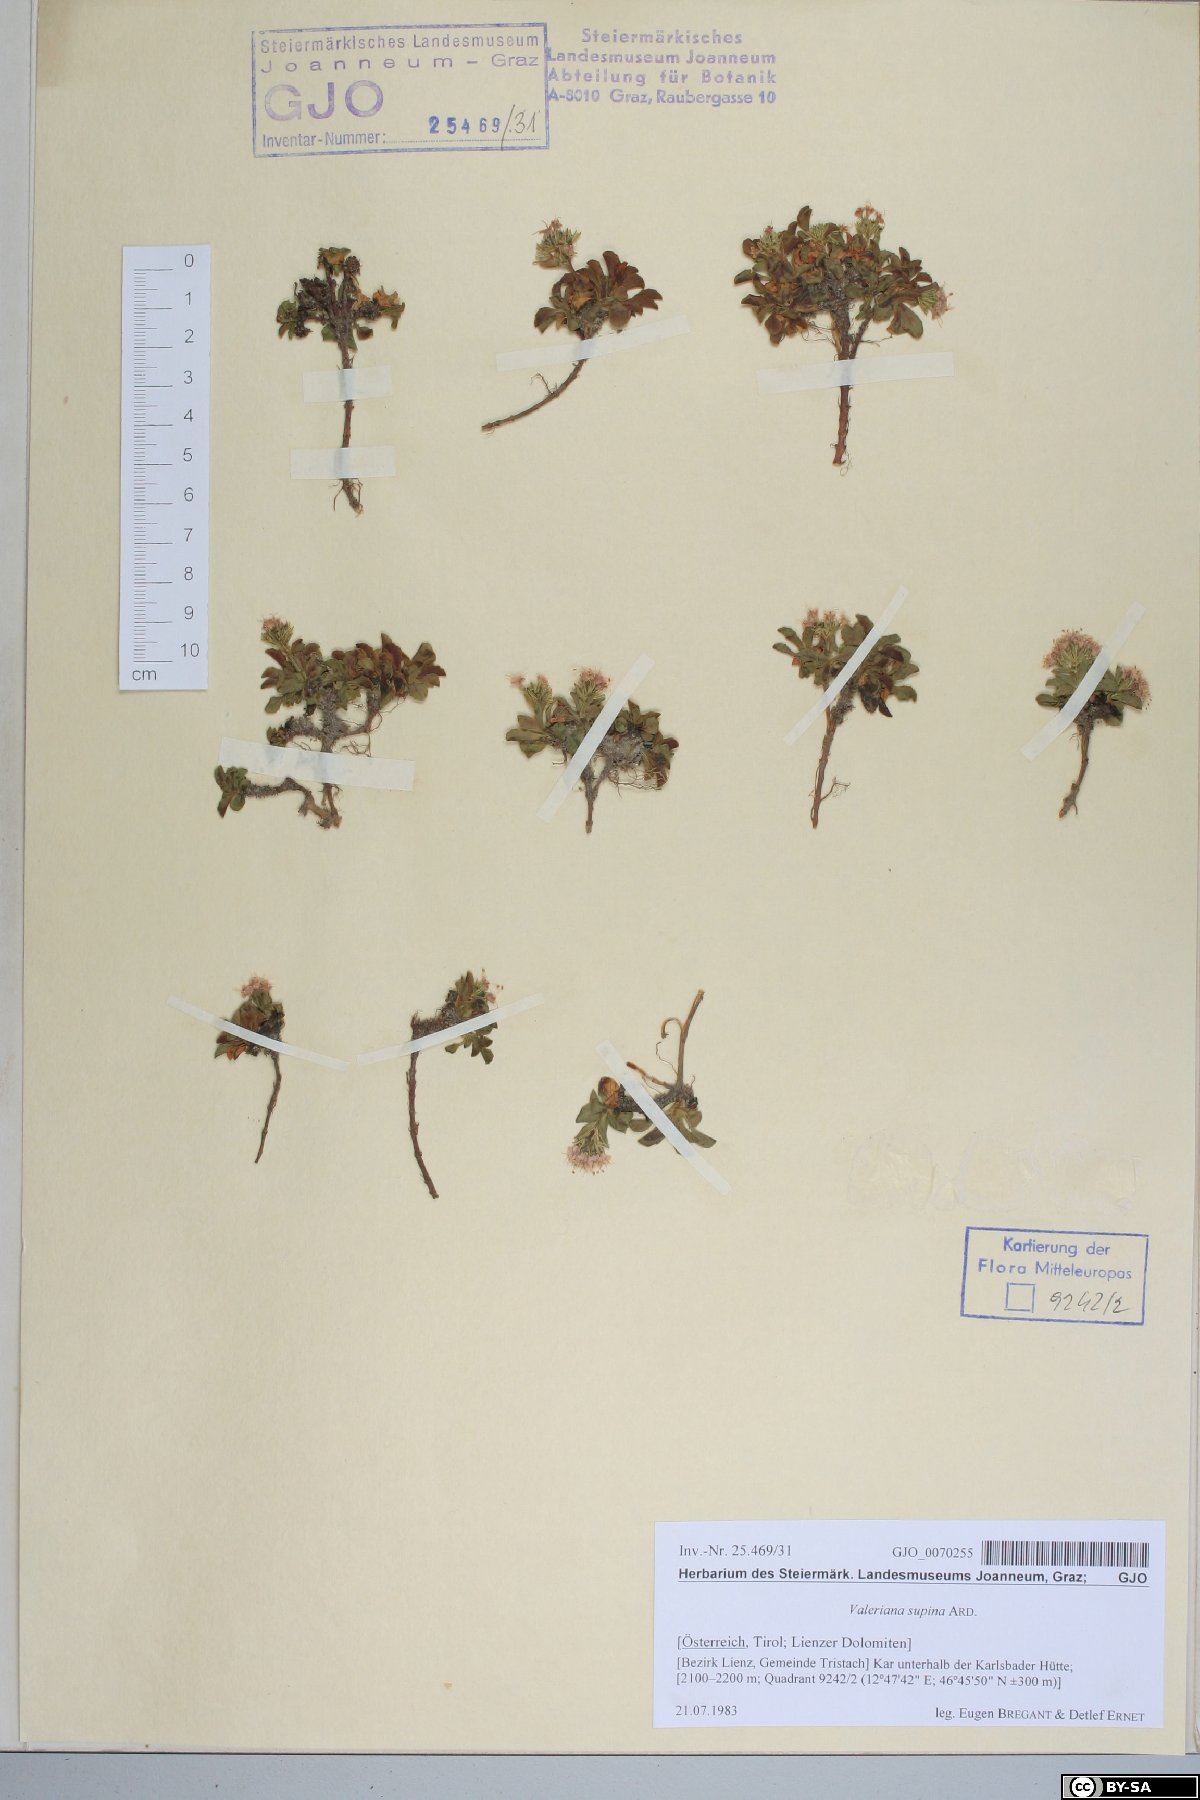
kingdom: Plantae
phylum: Tracheophyta
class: Magnoliopsida
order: Dipsacales
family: Caprifoliaceae
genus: Valeriana
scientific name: Valeriana supina
